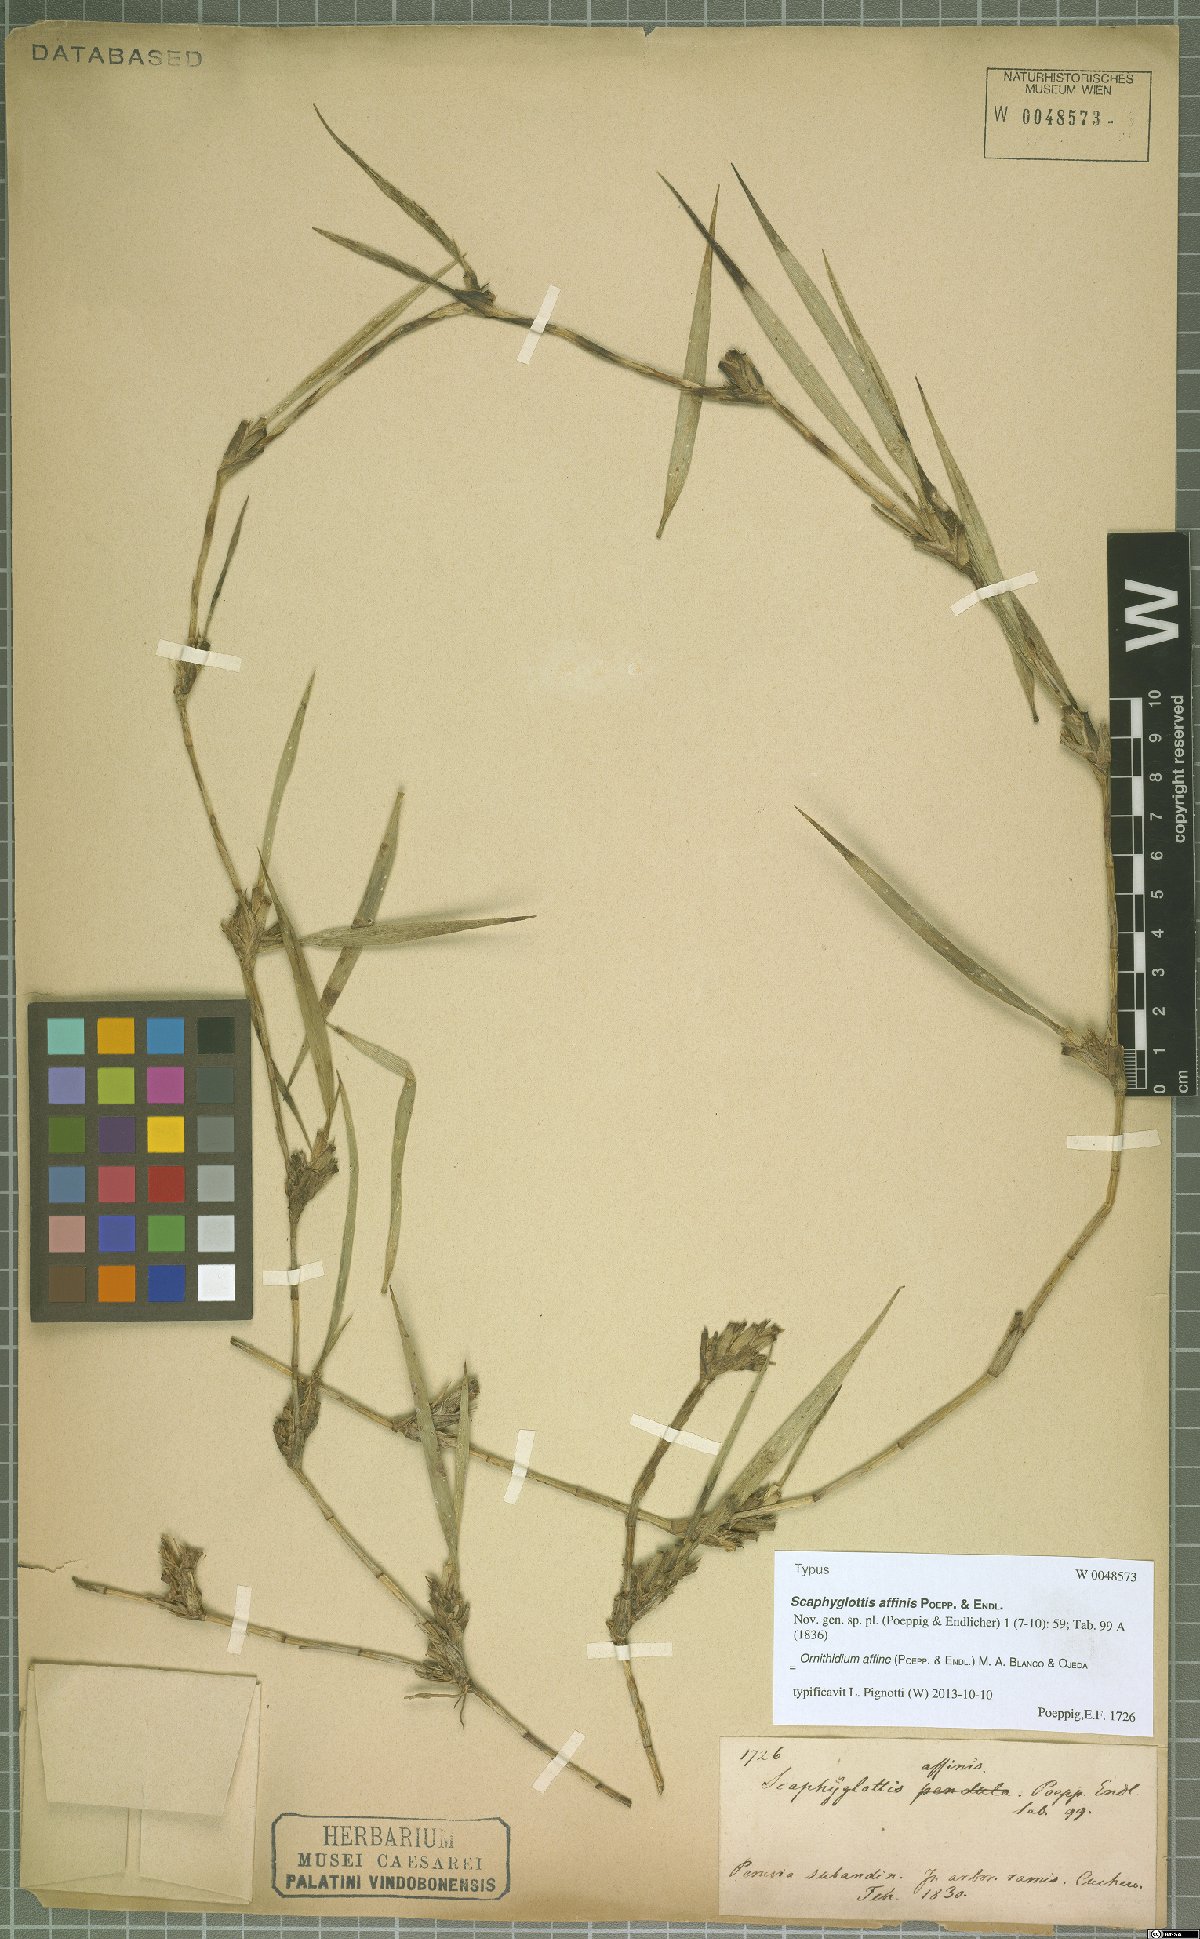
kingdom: Plantae
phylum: Tracheophyta
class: Liliopsida
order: Asparagales
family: Orchidaceae
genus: Maxillaria
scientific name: Maxillaria affinis
